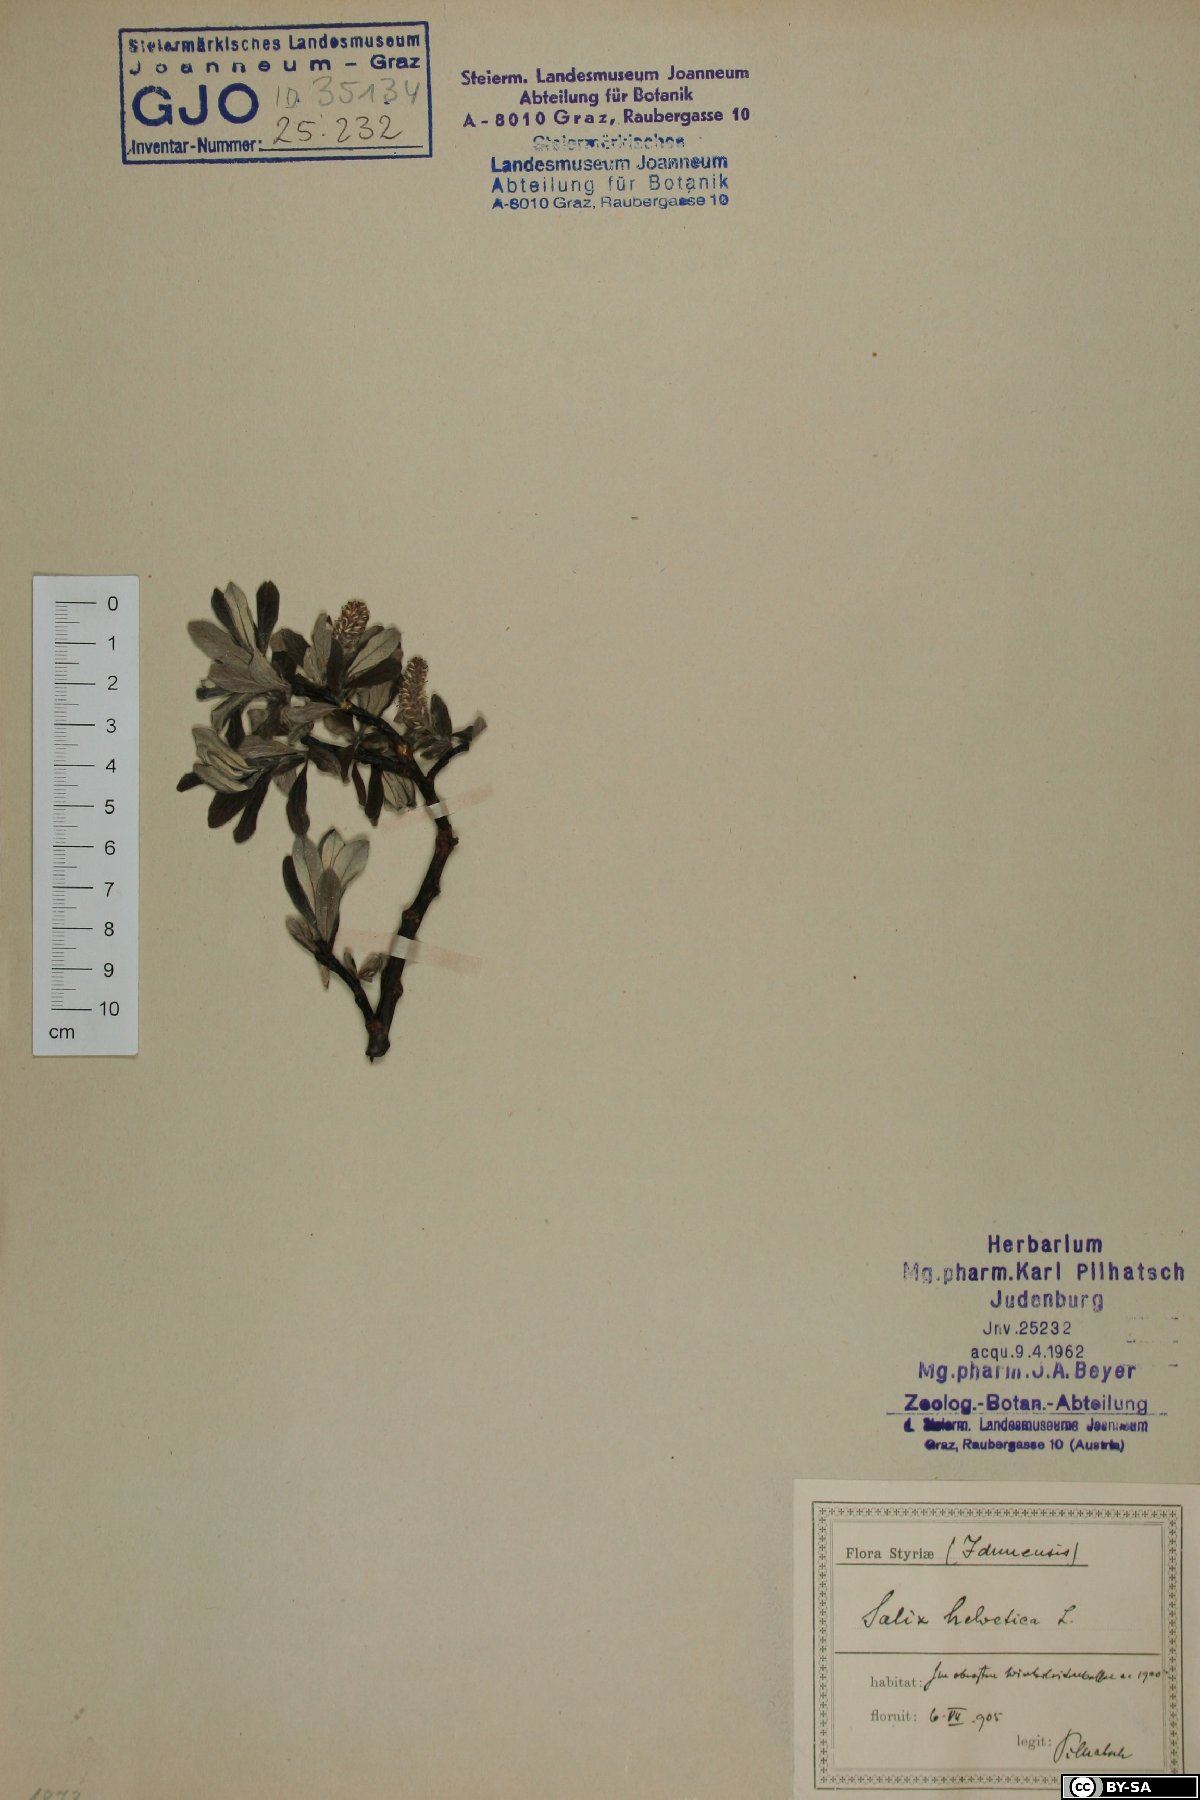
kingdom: Plantae
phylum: Tracheophyta
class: Magnoliopsida
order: Malpighiales
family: Salicaceae
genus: Salix
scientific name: Salix helvetica
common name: Swiss willow
